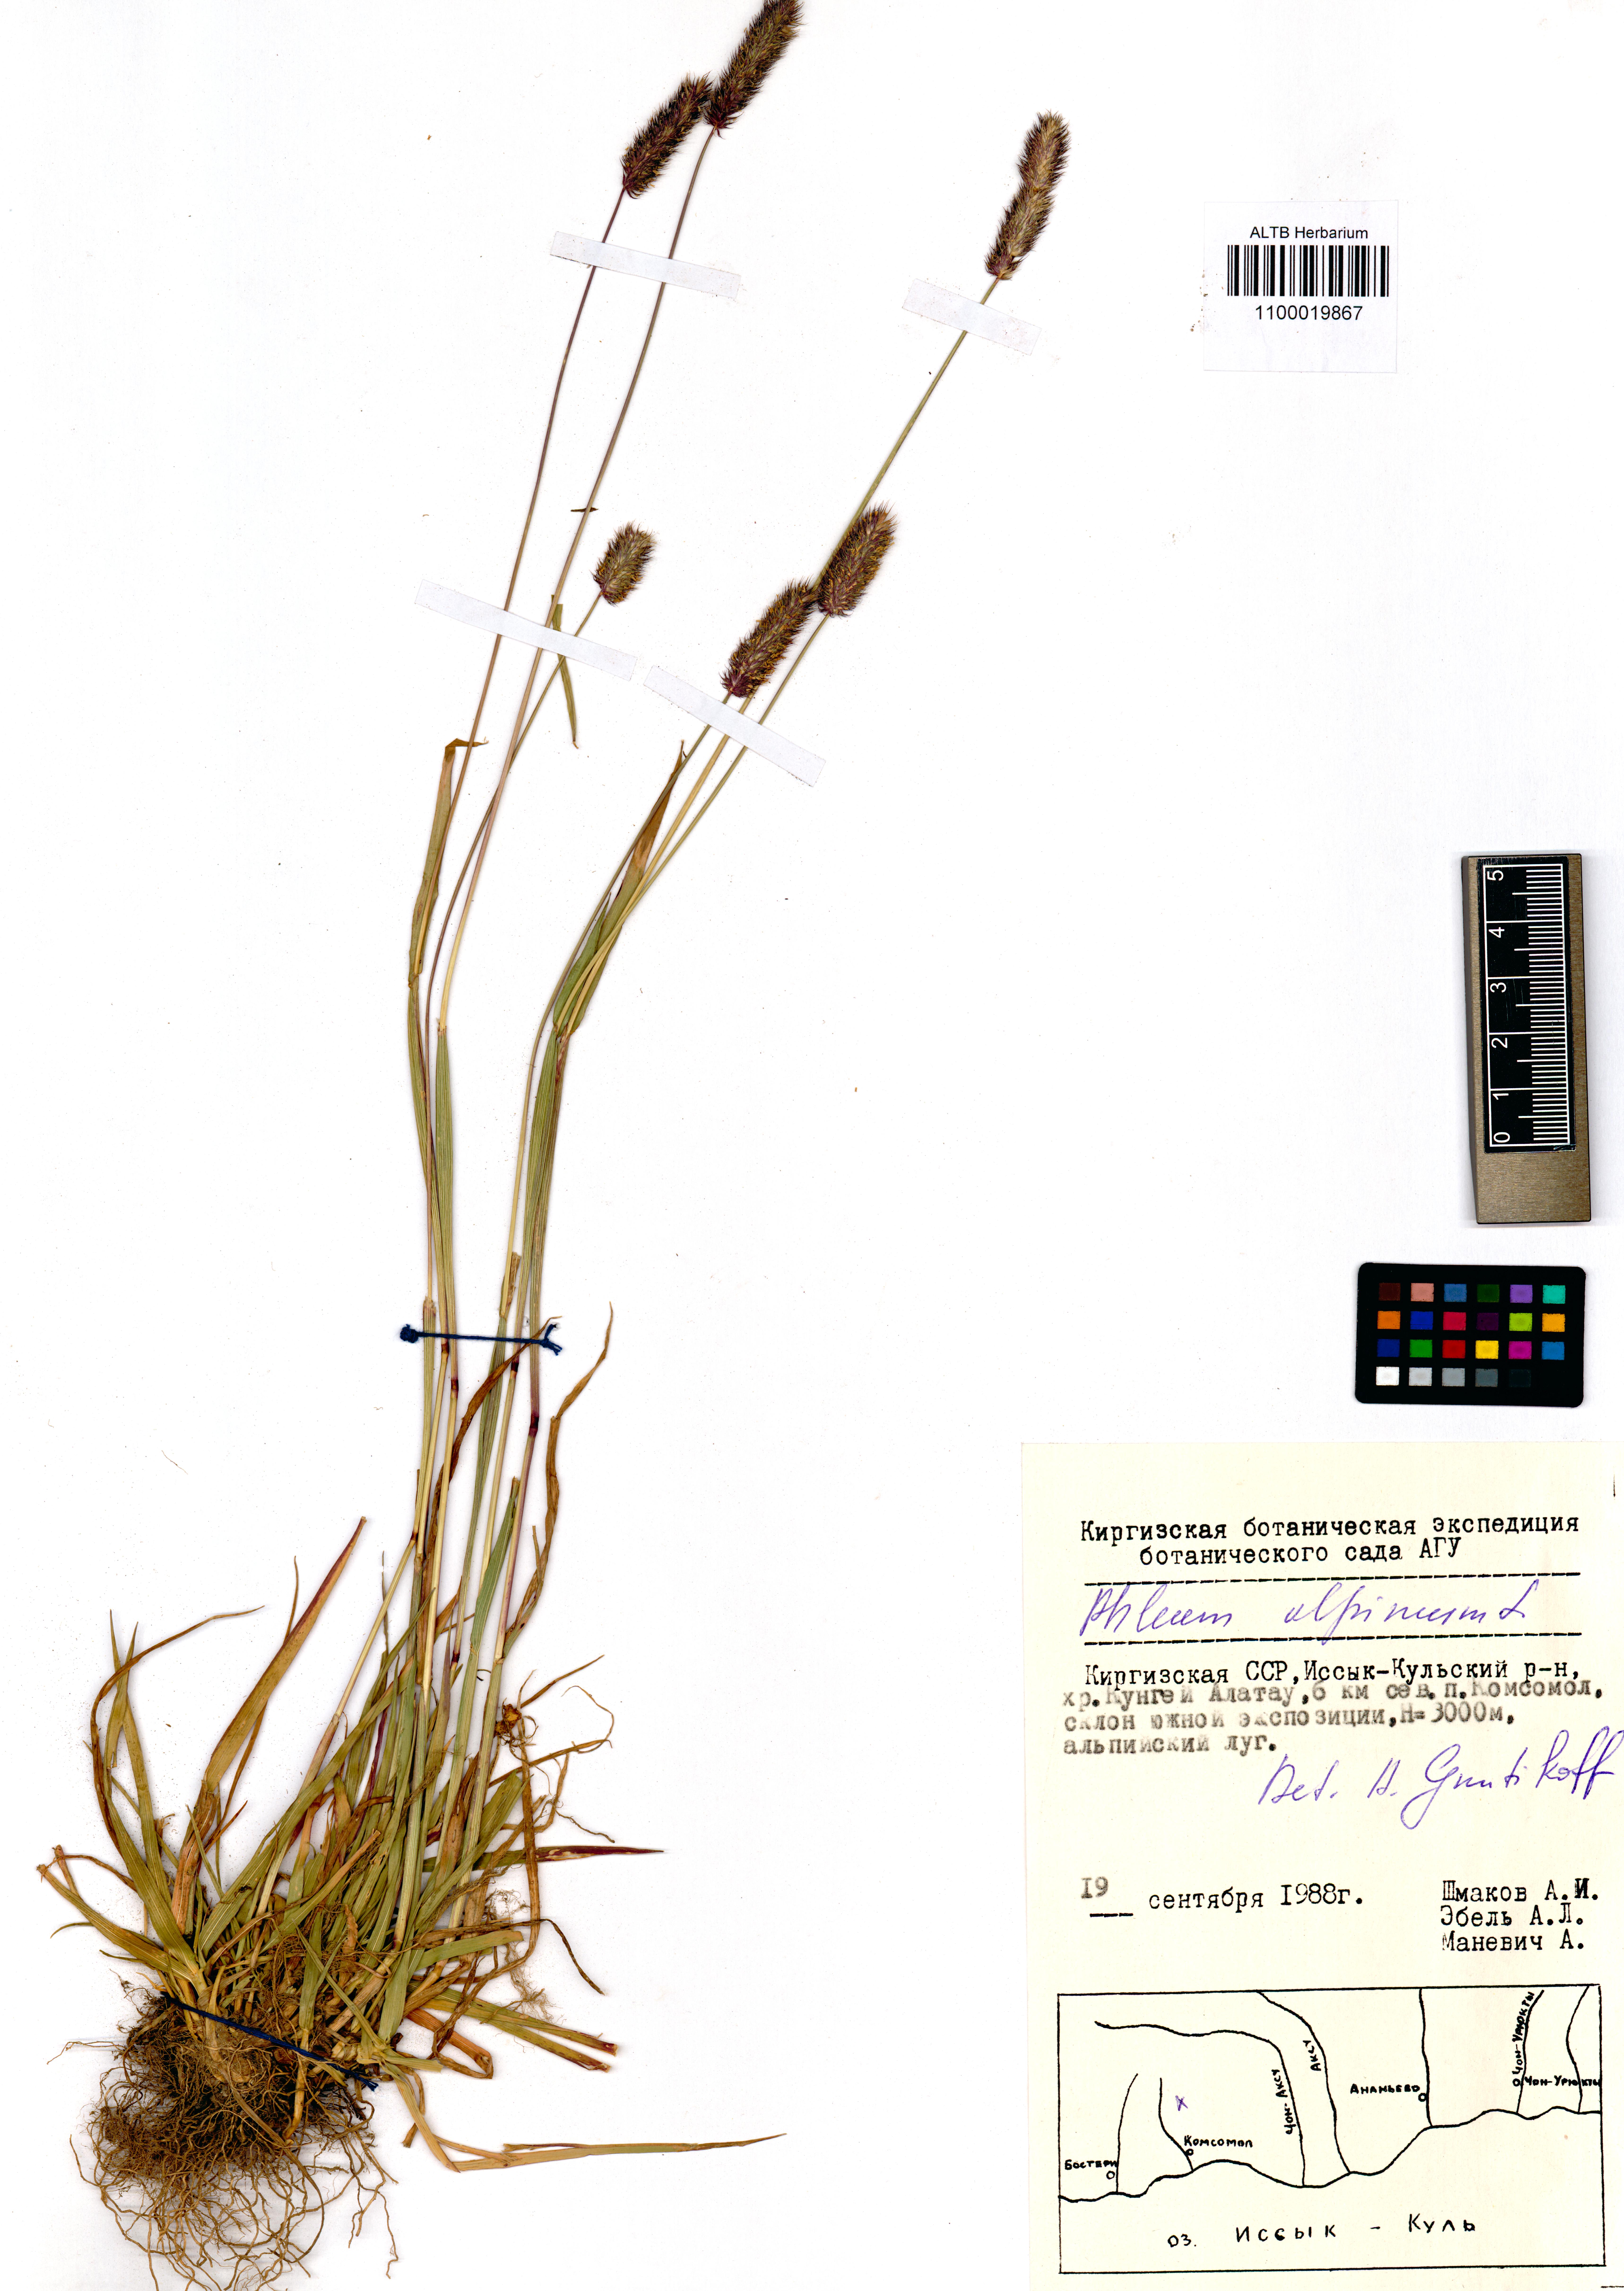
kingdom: Plantae
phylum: Tracheophyta
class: Liliopsida
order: Poales
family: Poaceae
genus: Phleum
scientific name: Phleum alpinum
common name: Alpine cat's-tail
